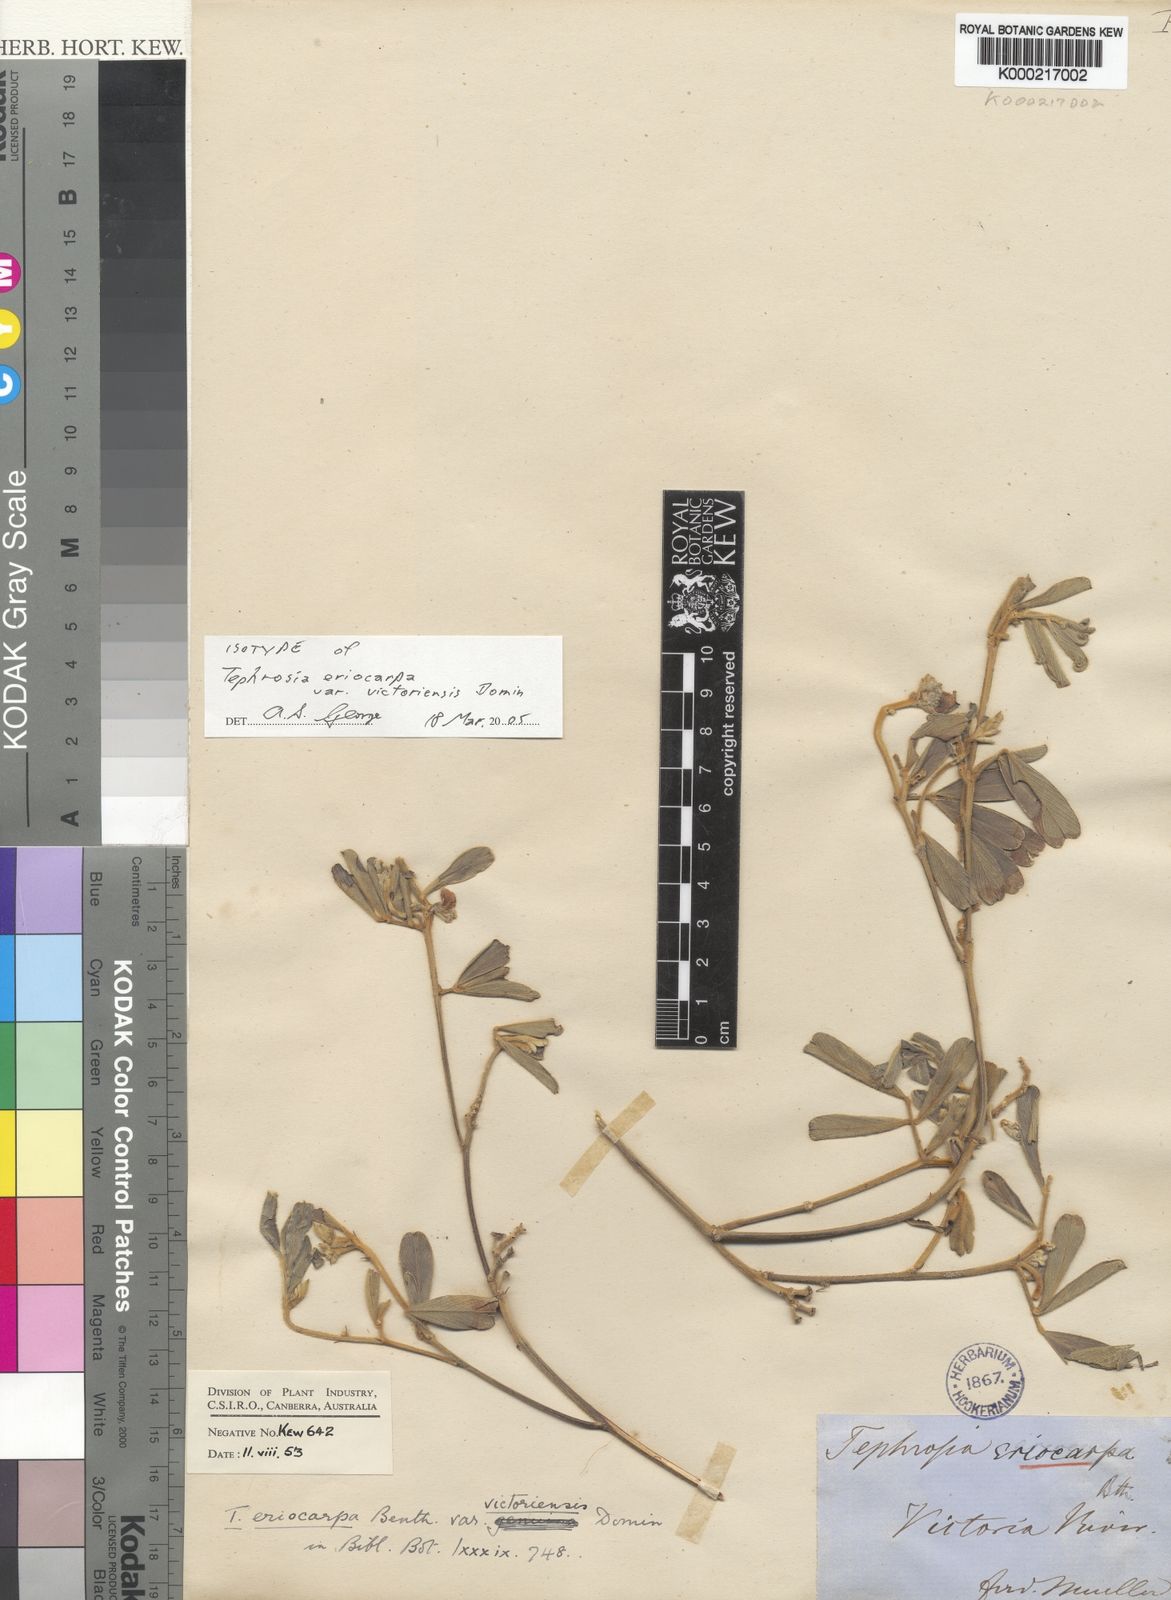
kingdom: Plantae
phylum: Tracheophyta
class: Magnoliopsida
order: Fabales
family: Fabaceae
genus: Tephrosia
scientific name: Tephrosia eriocarpa
